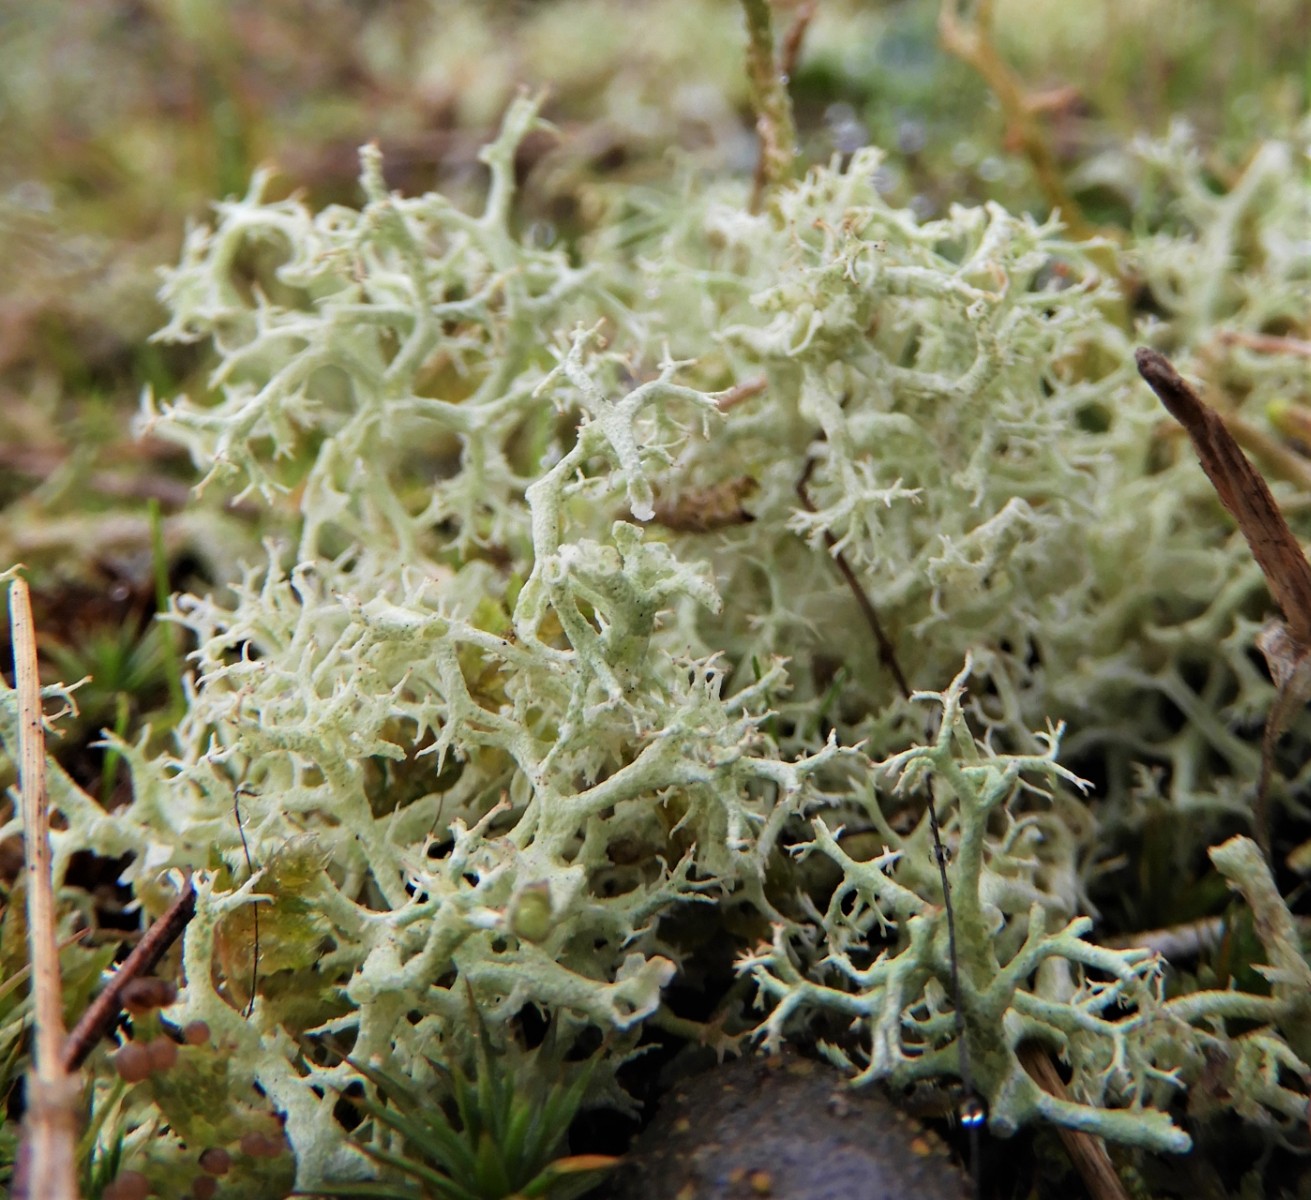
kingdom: Fungi
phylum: Ascomycota
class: Lecanoromycetes
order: Lecanorales
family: Cladoniaceae
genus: Cladonia
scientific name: Cladonia portentosa
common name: hede-rensdyrlav
